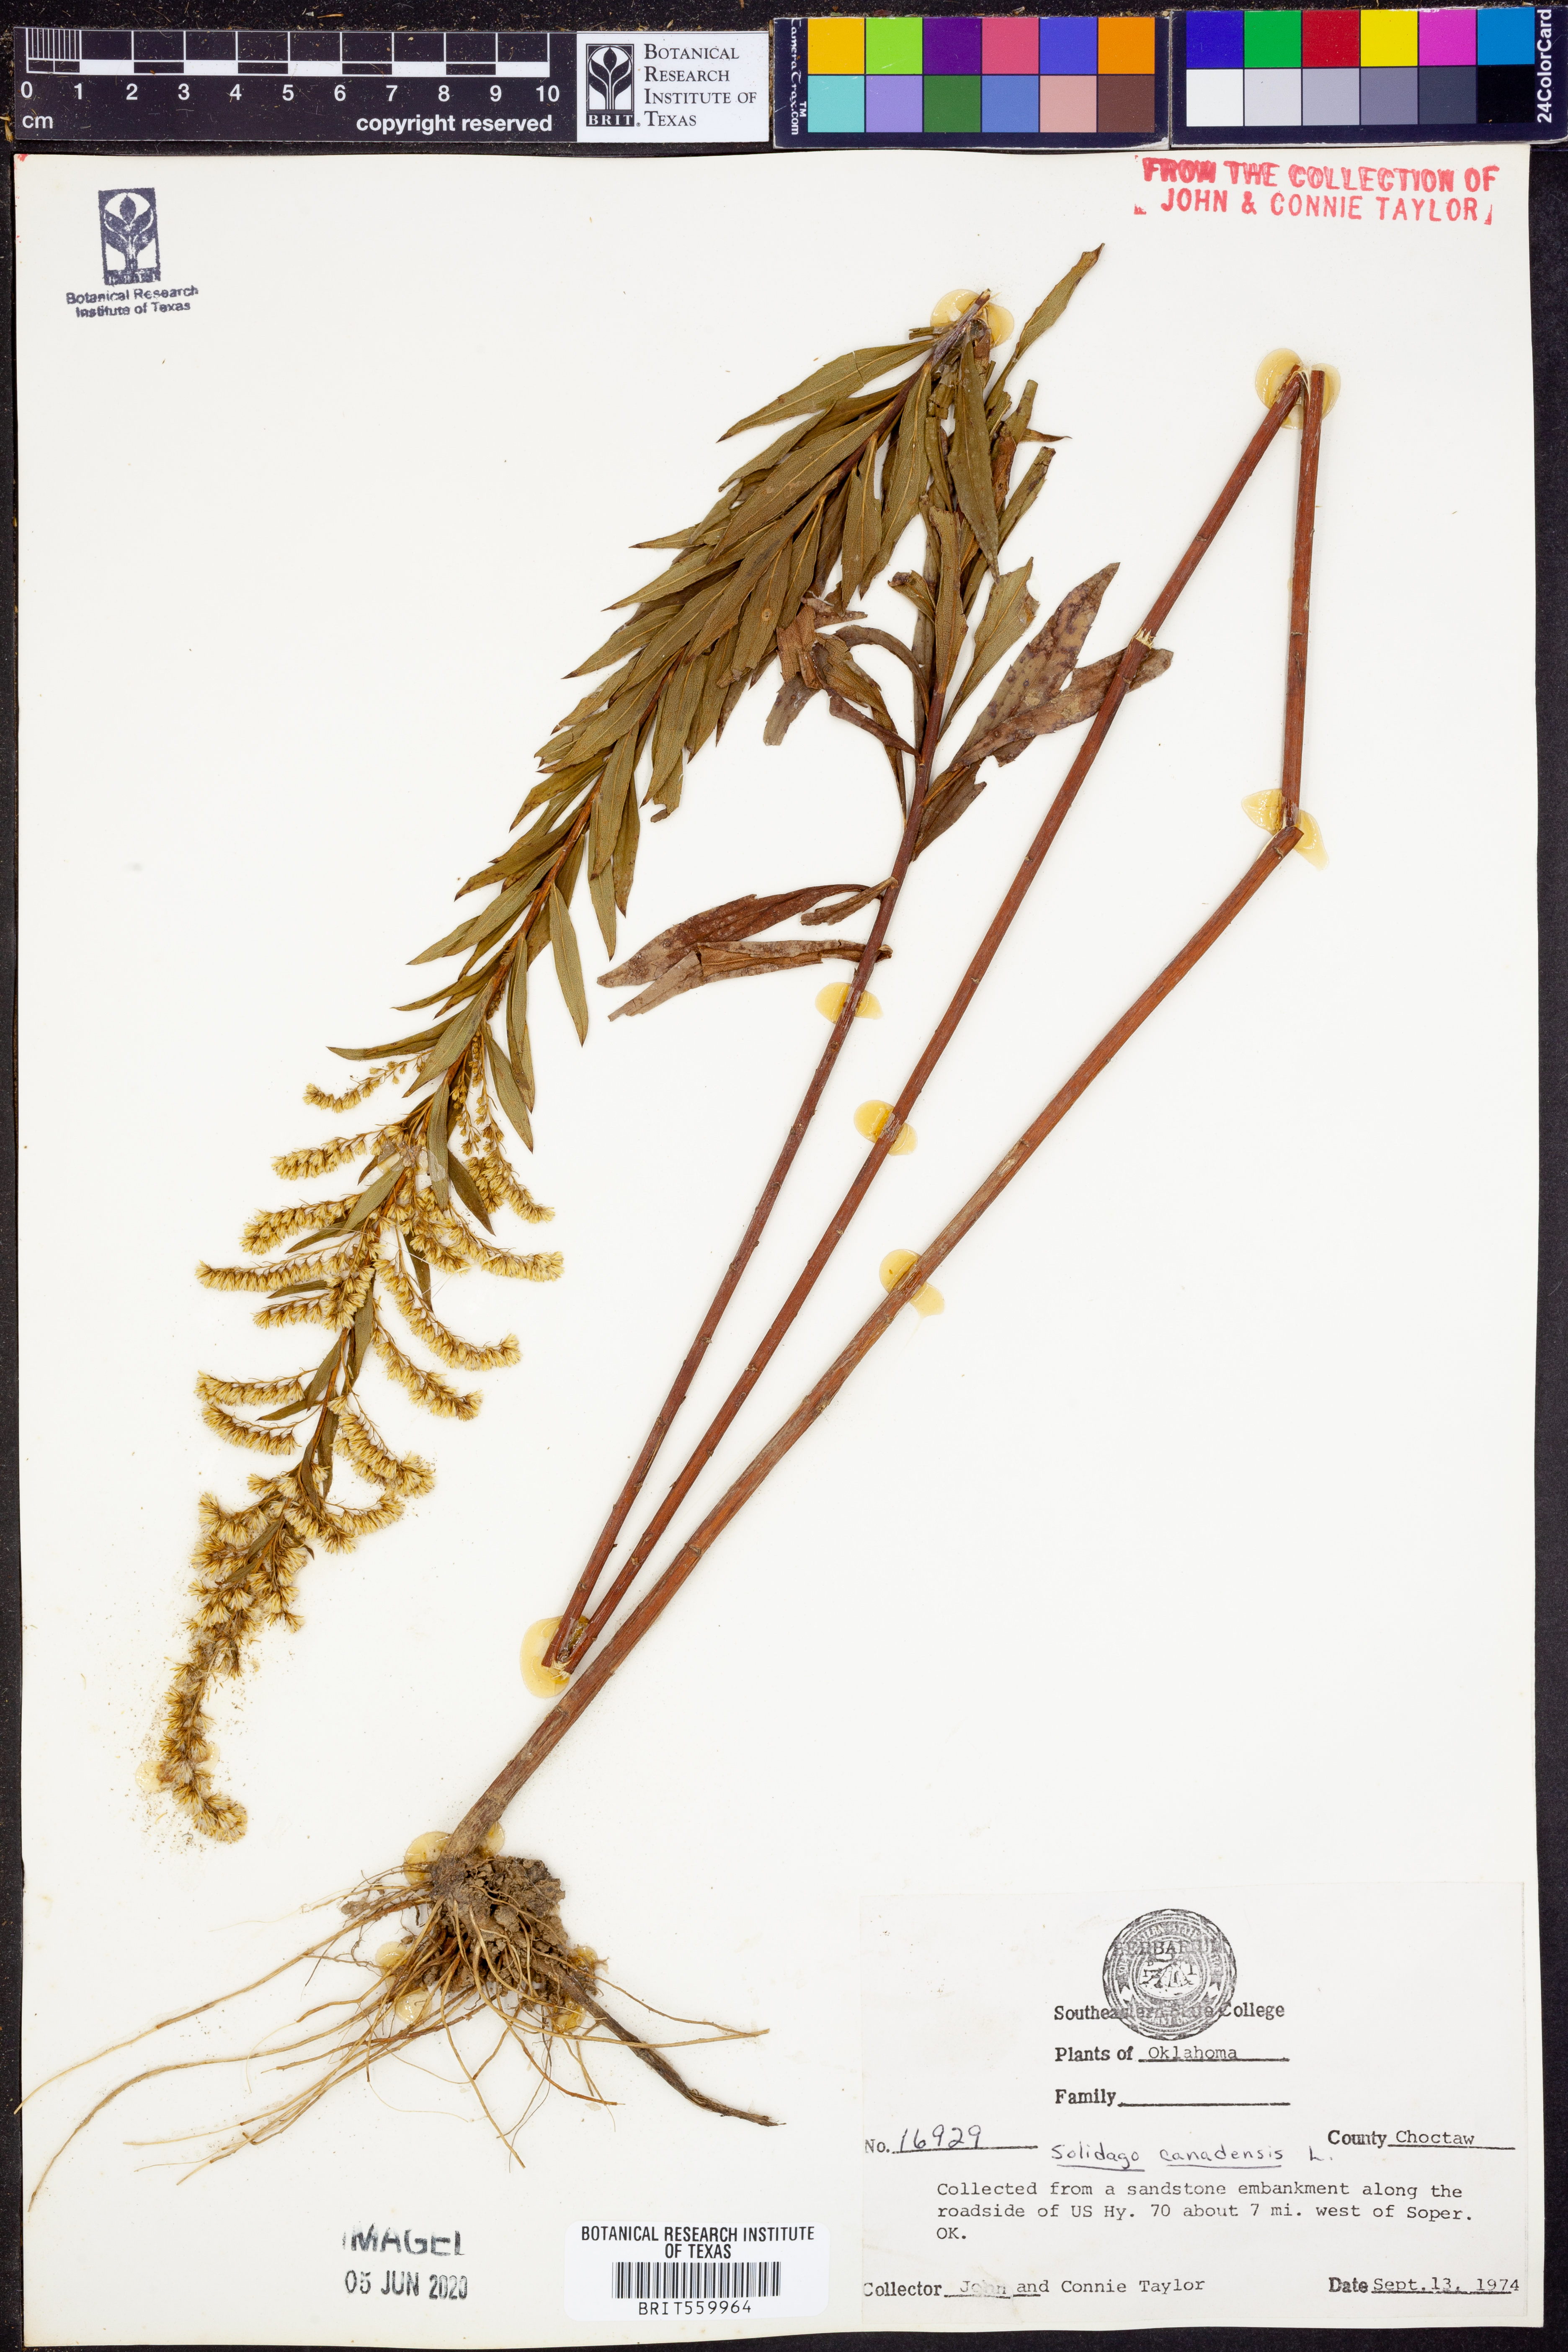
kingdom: Plantae
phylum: Tracheophyta
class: Magnoliopsida
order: Asterales
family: Asteraceae
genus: Solidago
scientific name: Solidago canadensis
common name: Canada goldenrod
